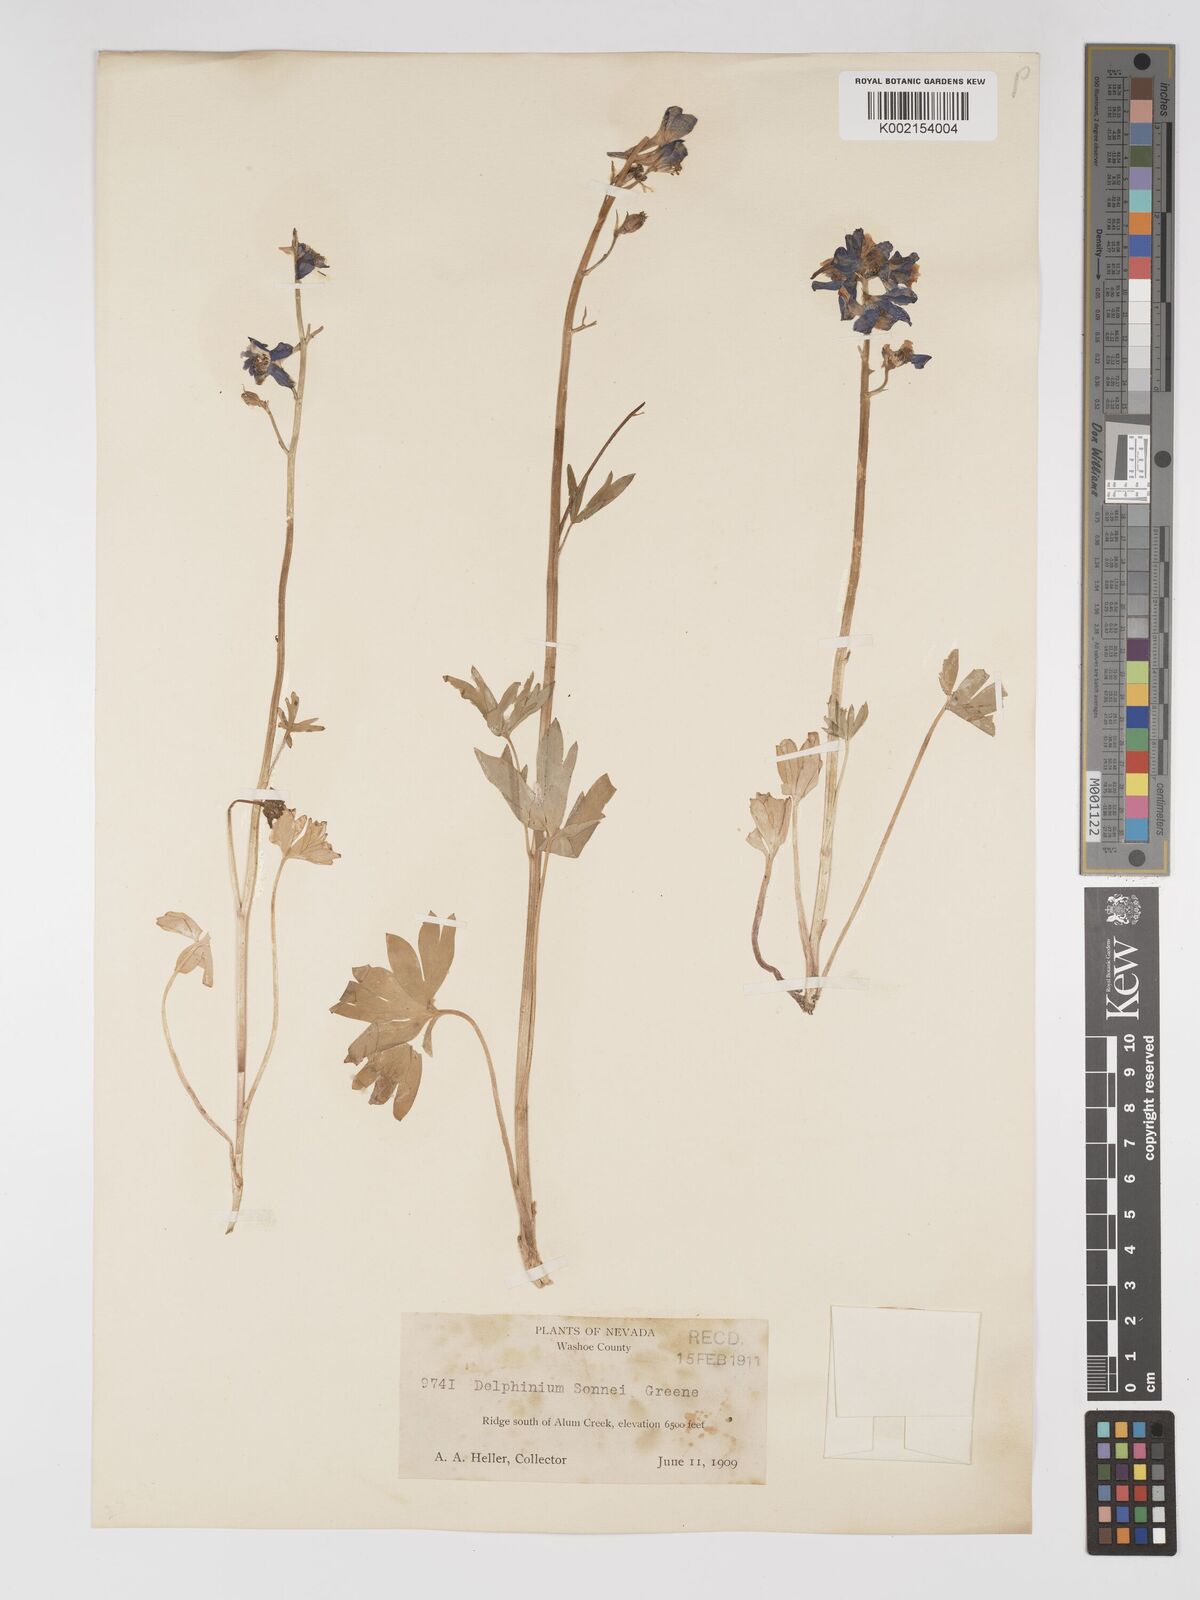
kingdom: Plantae
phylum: Tracheophyta
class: Magnoliopsida
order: Ranunculales
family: Ranunculaceae
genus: Delphinium
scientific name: Delphinium nuttallianum
